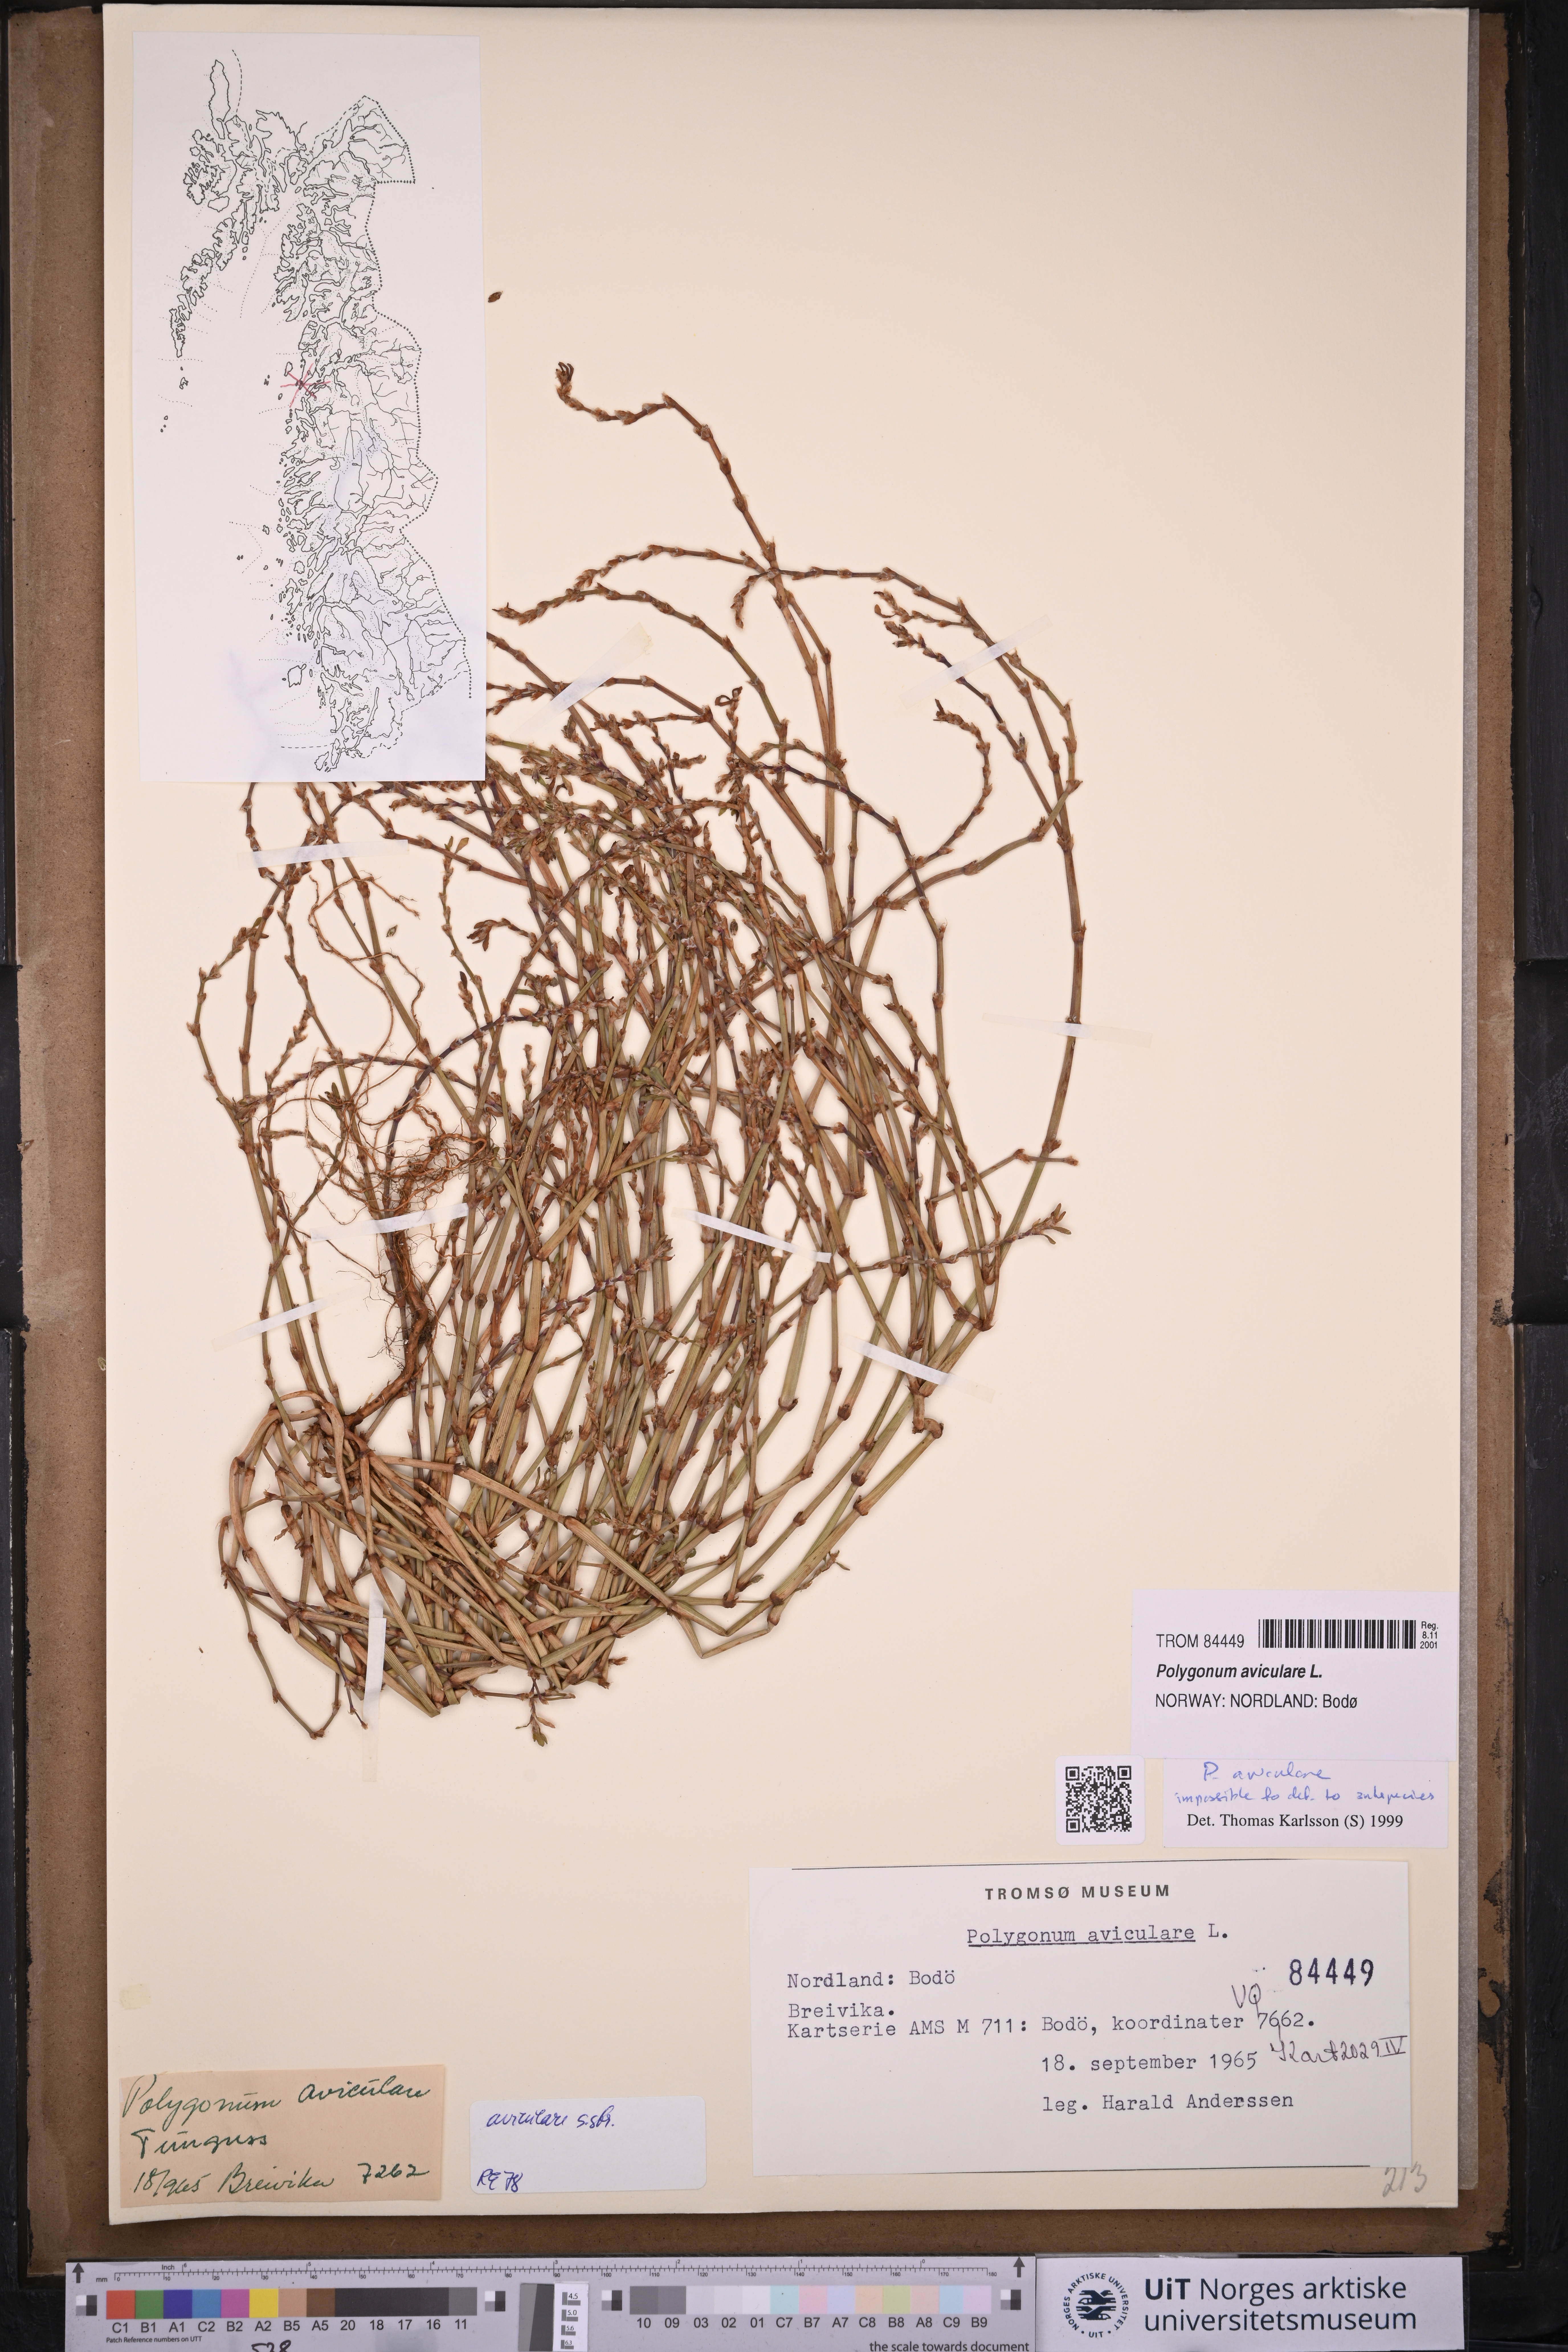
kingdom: Plantae
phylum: Tracheophyta
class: Magnoliopsida
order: Caryophyllales
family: Polygonaceae
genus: Polygonum
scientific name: Polygonum aviculare
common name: Prostrate knotweed
